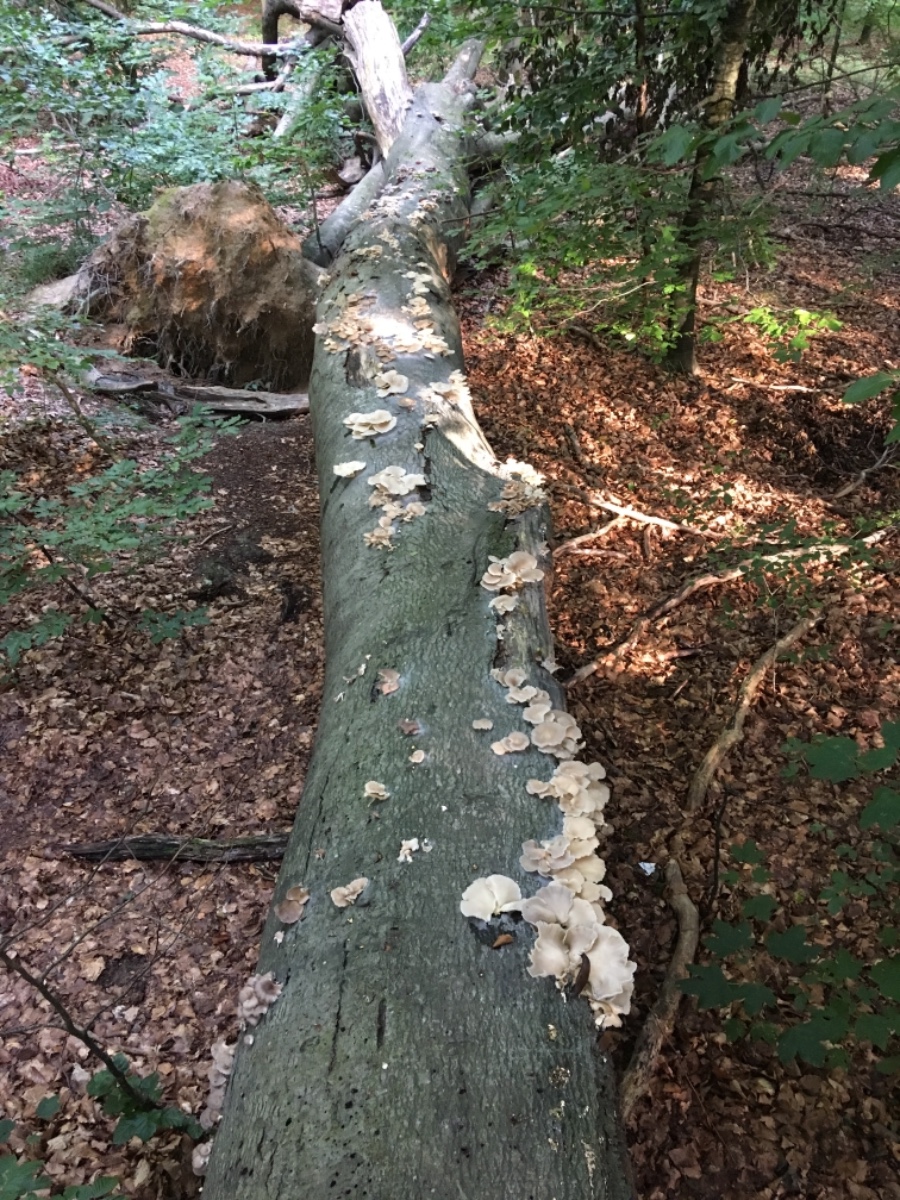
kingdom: Fungi
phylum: Basidiomycota
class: Agaricomycetes
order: Agaricales
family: Pleurotaceae
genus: Pleurotus
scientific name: Pleurotus pulmonarius
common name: sommer-østershat
